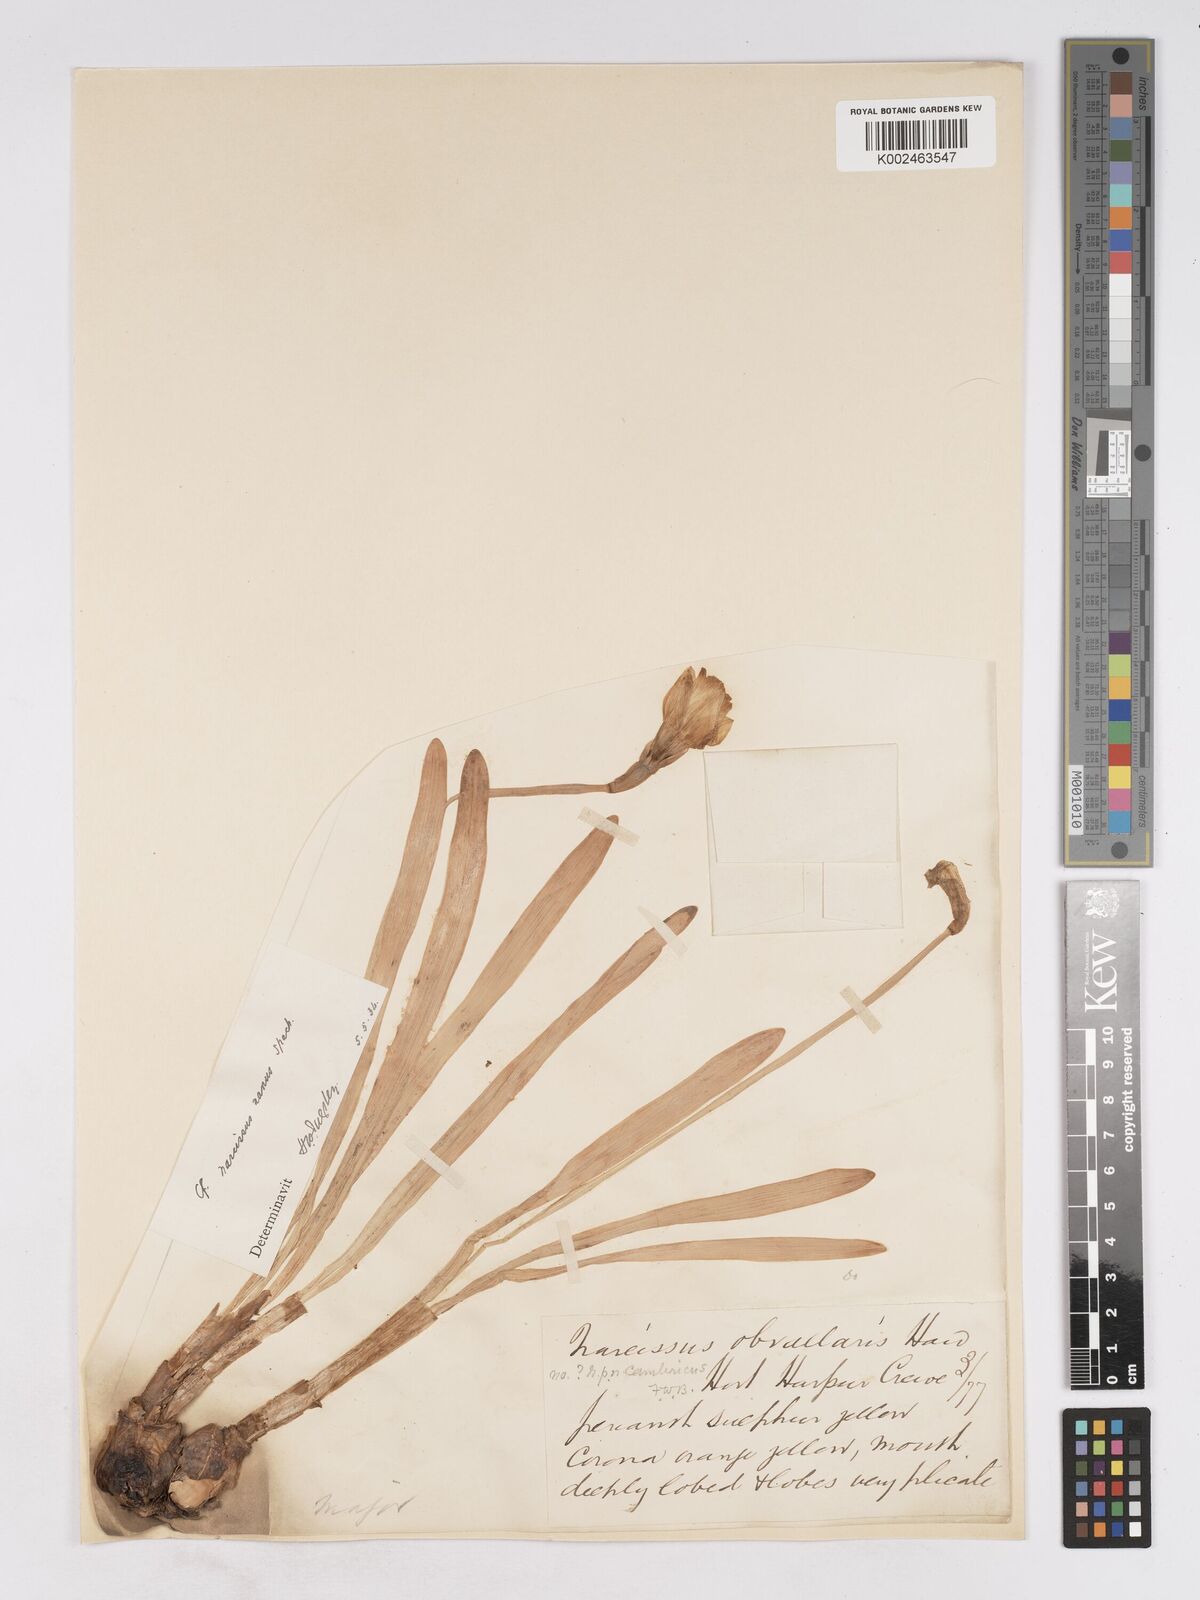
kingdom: Plantae
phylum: Tracheophyta
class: Liliopsida
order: Asparagales
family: Amaryllidaceae
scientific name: Amaryllidaceae
